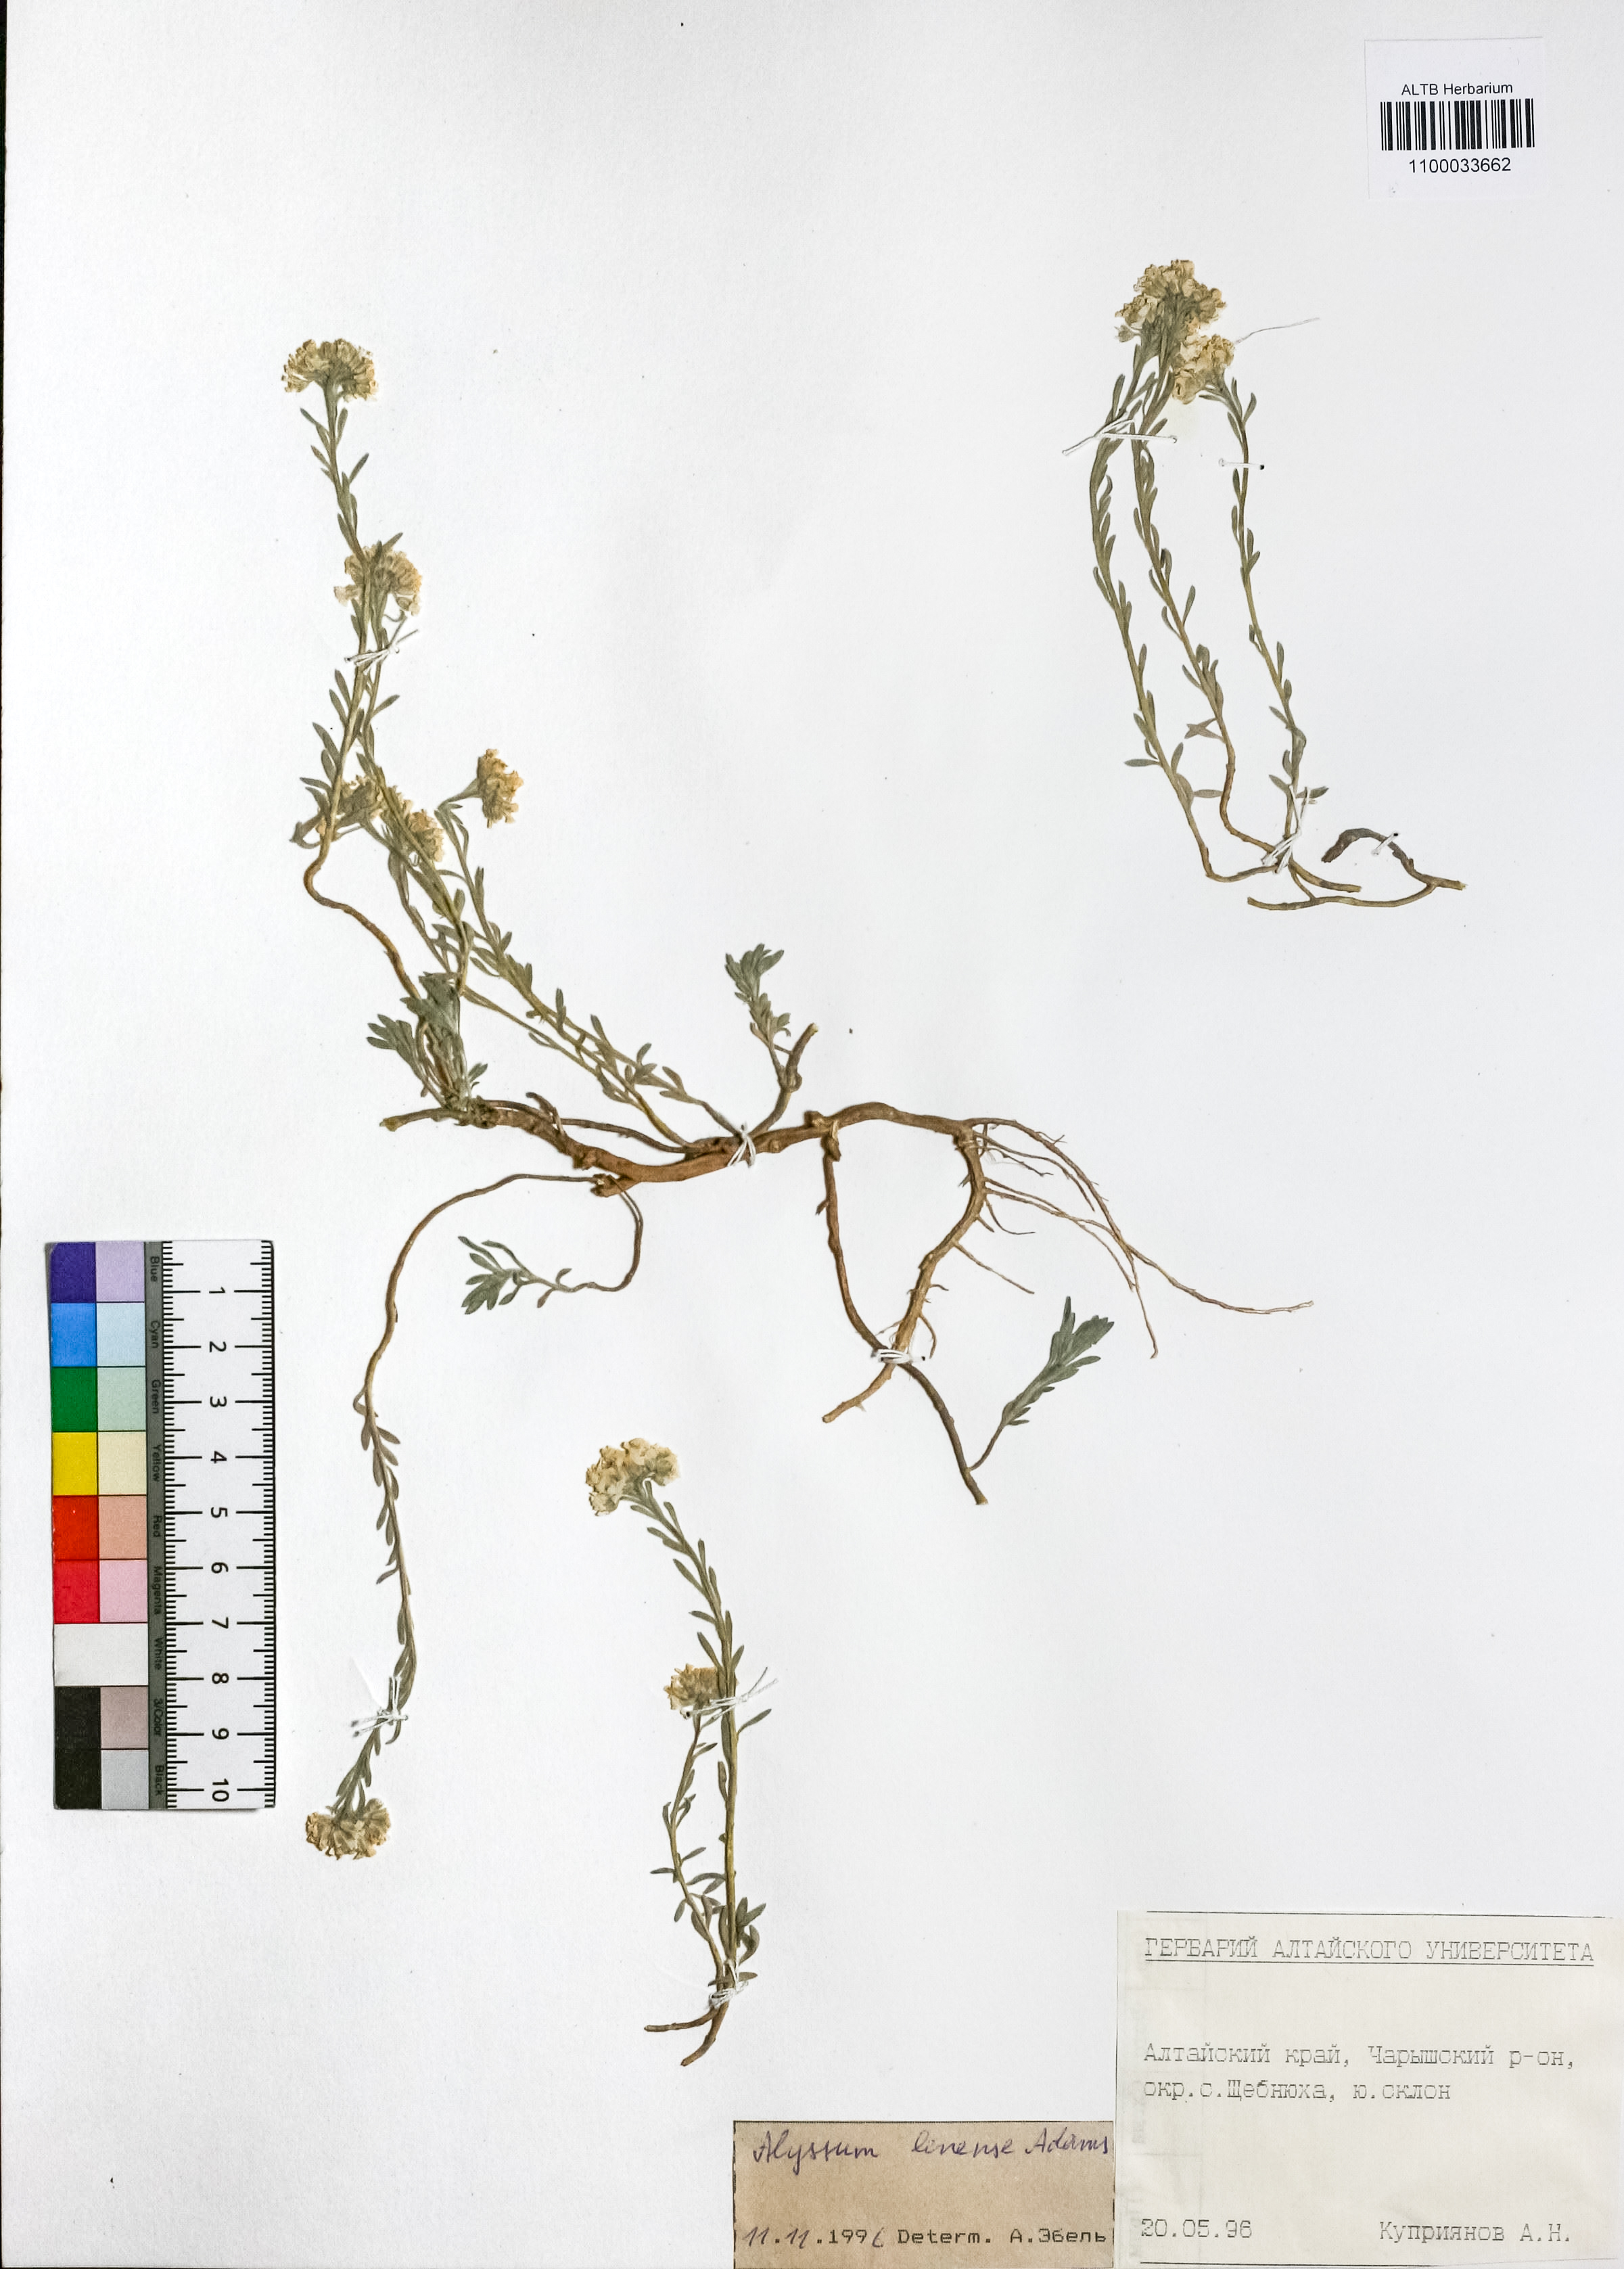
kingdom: Plantae
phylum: Tracheophyta
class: Magnoliopsida
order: Brassicales
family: Brassicaceae
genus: Alyssum
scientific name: Alyssum lenense
